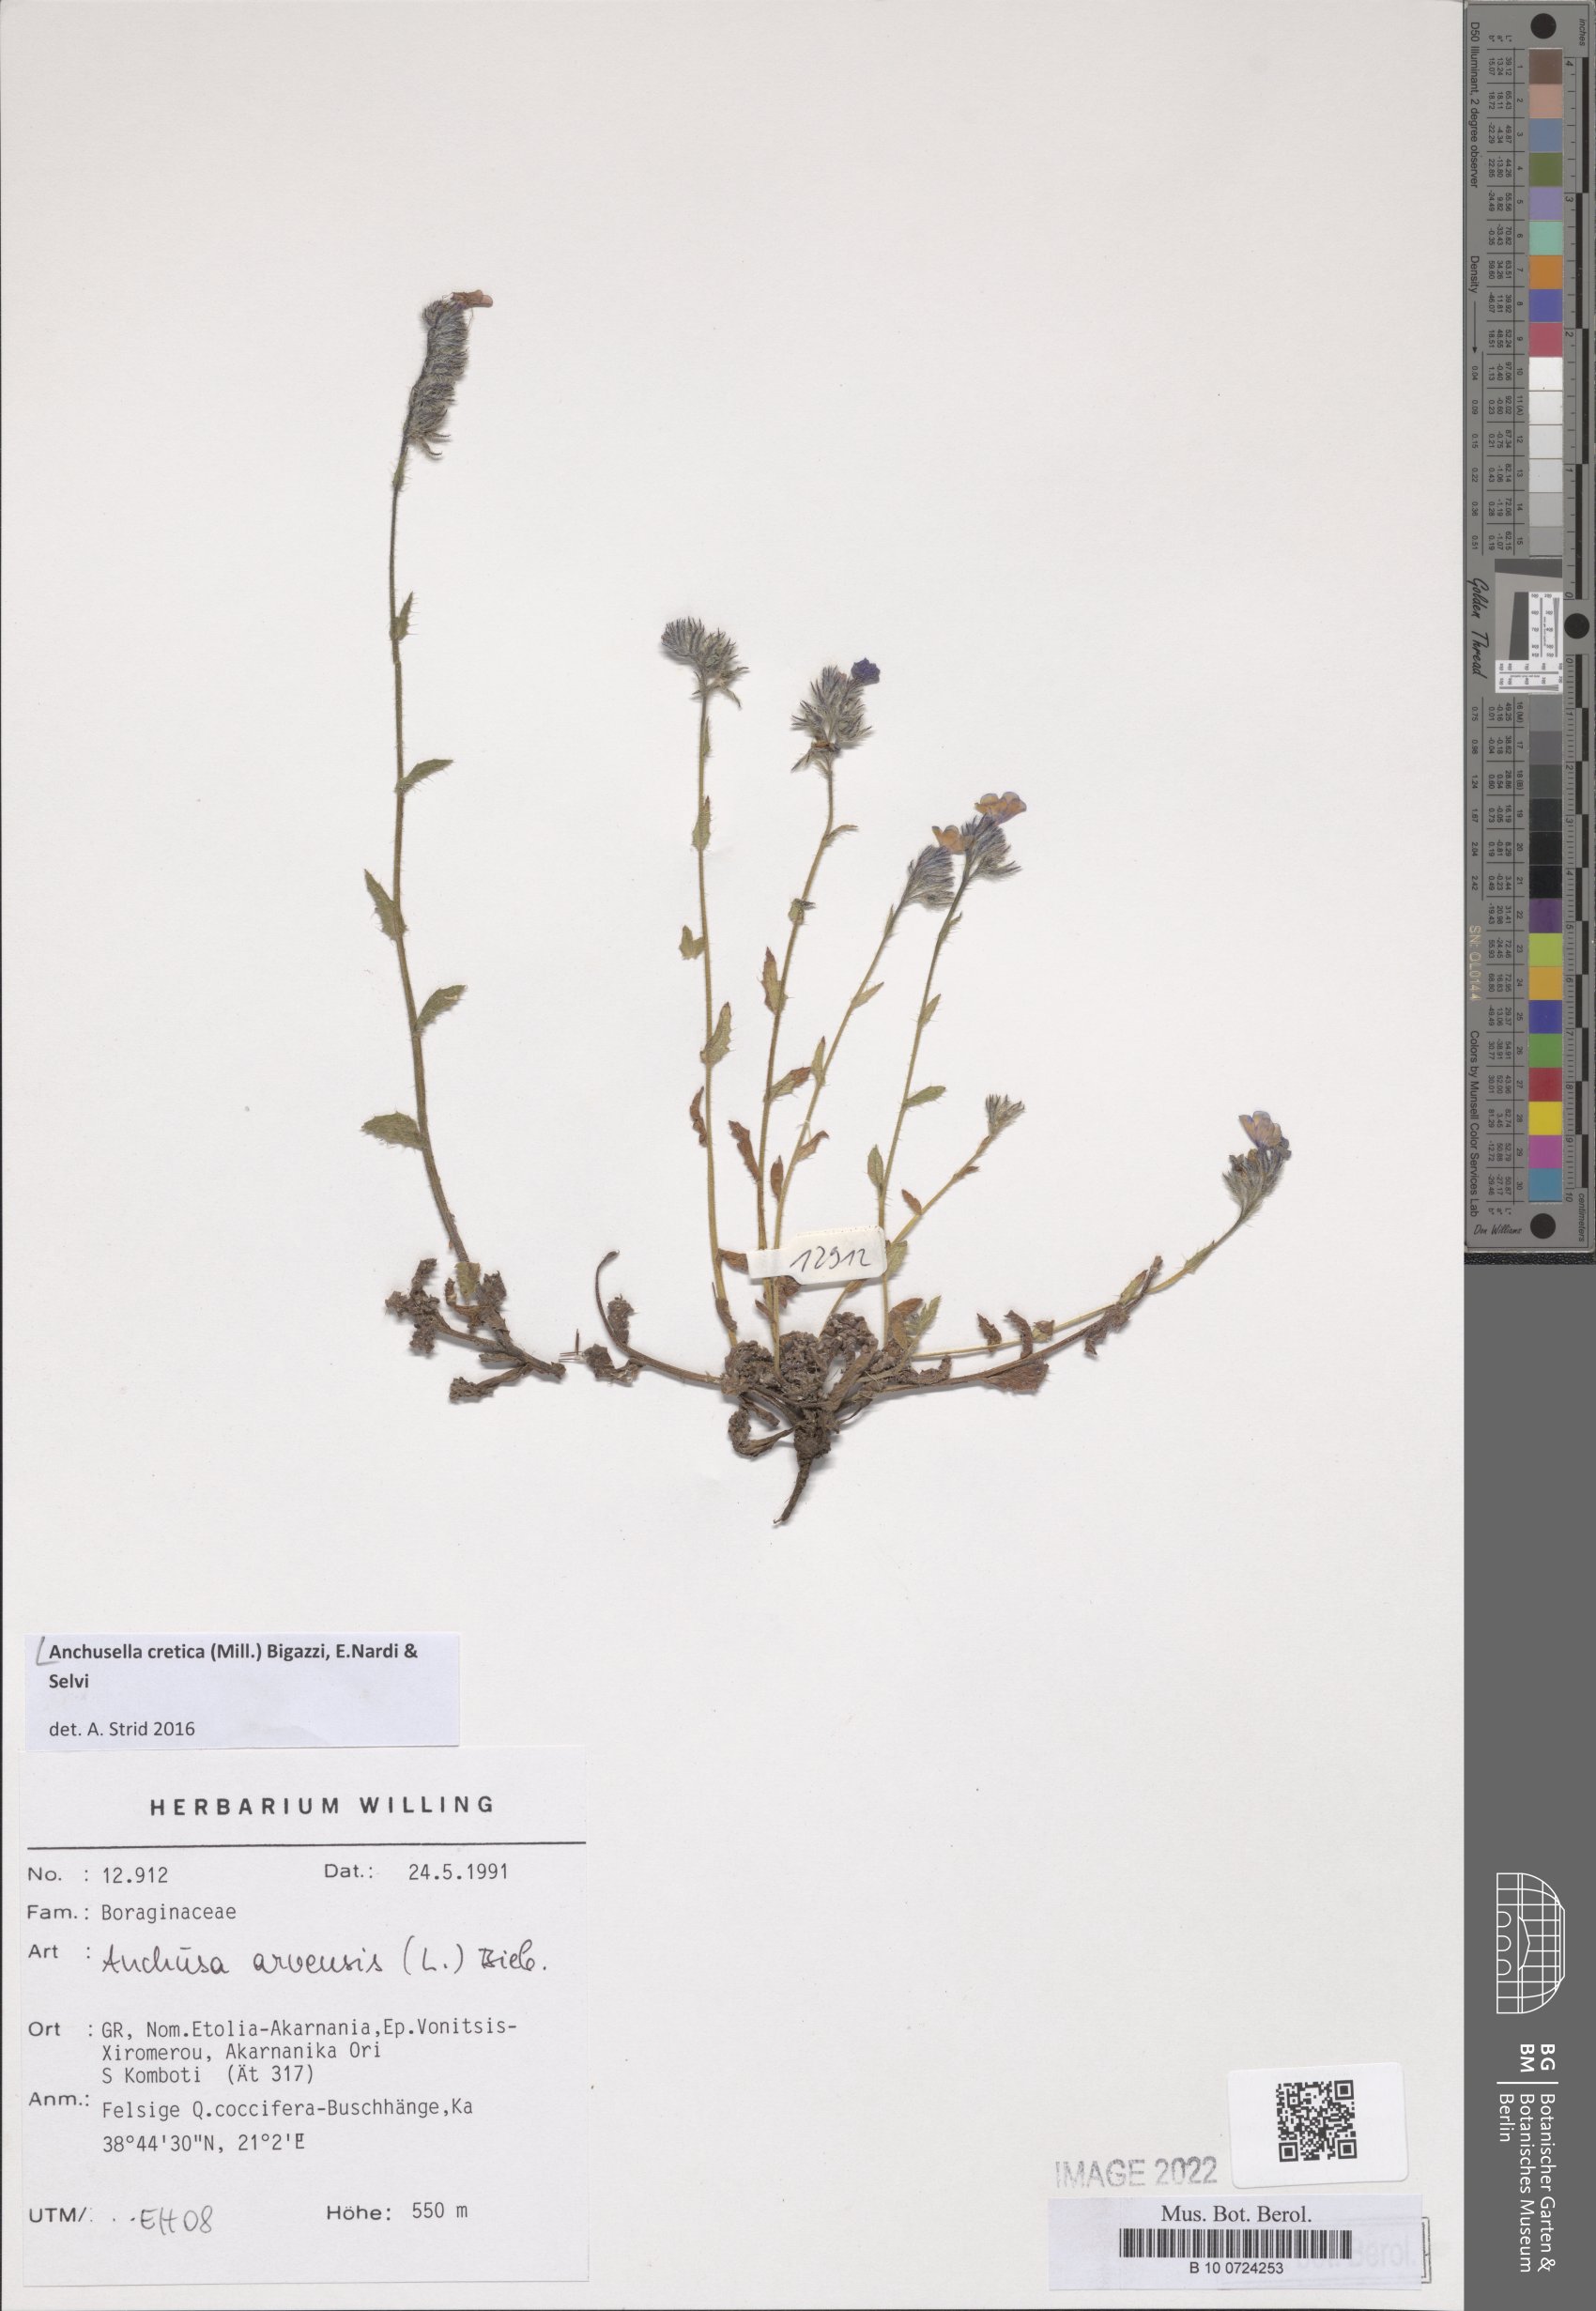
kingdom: Plantae
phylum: Tracheophyta
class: Magnoliopsida
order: Boraginales
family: Boraginaceae
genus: Anchusella
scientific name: Anchusella cretica
